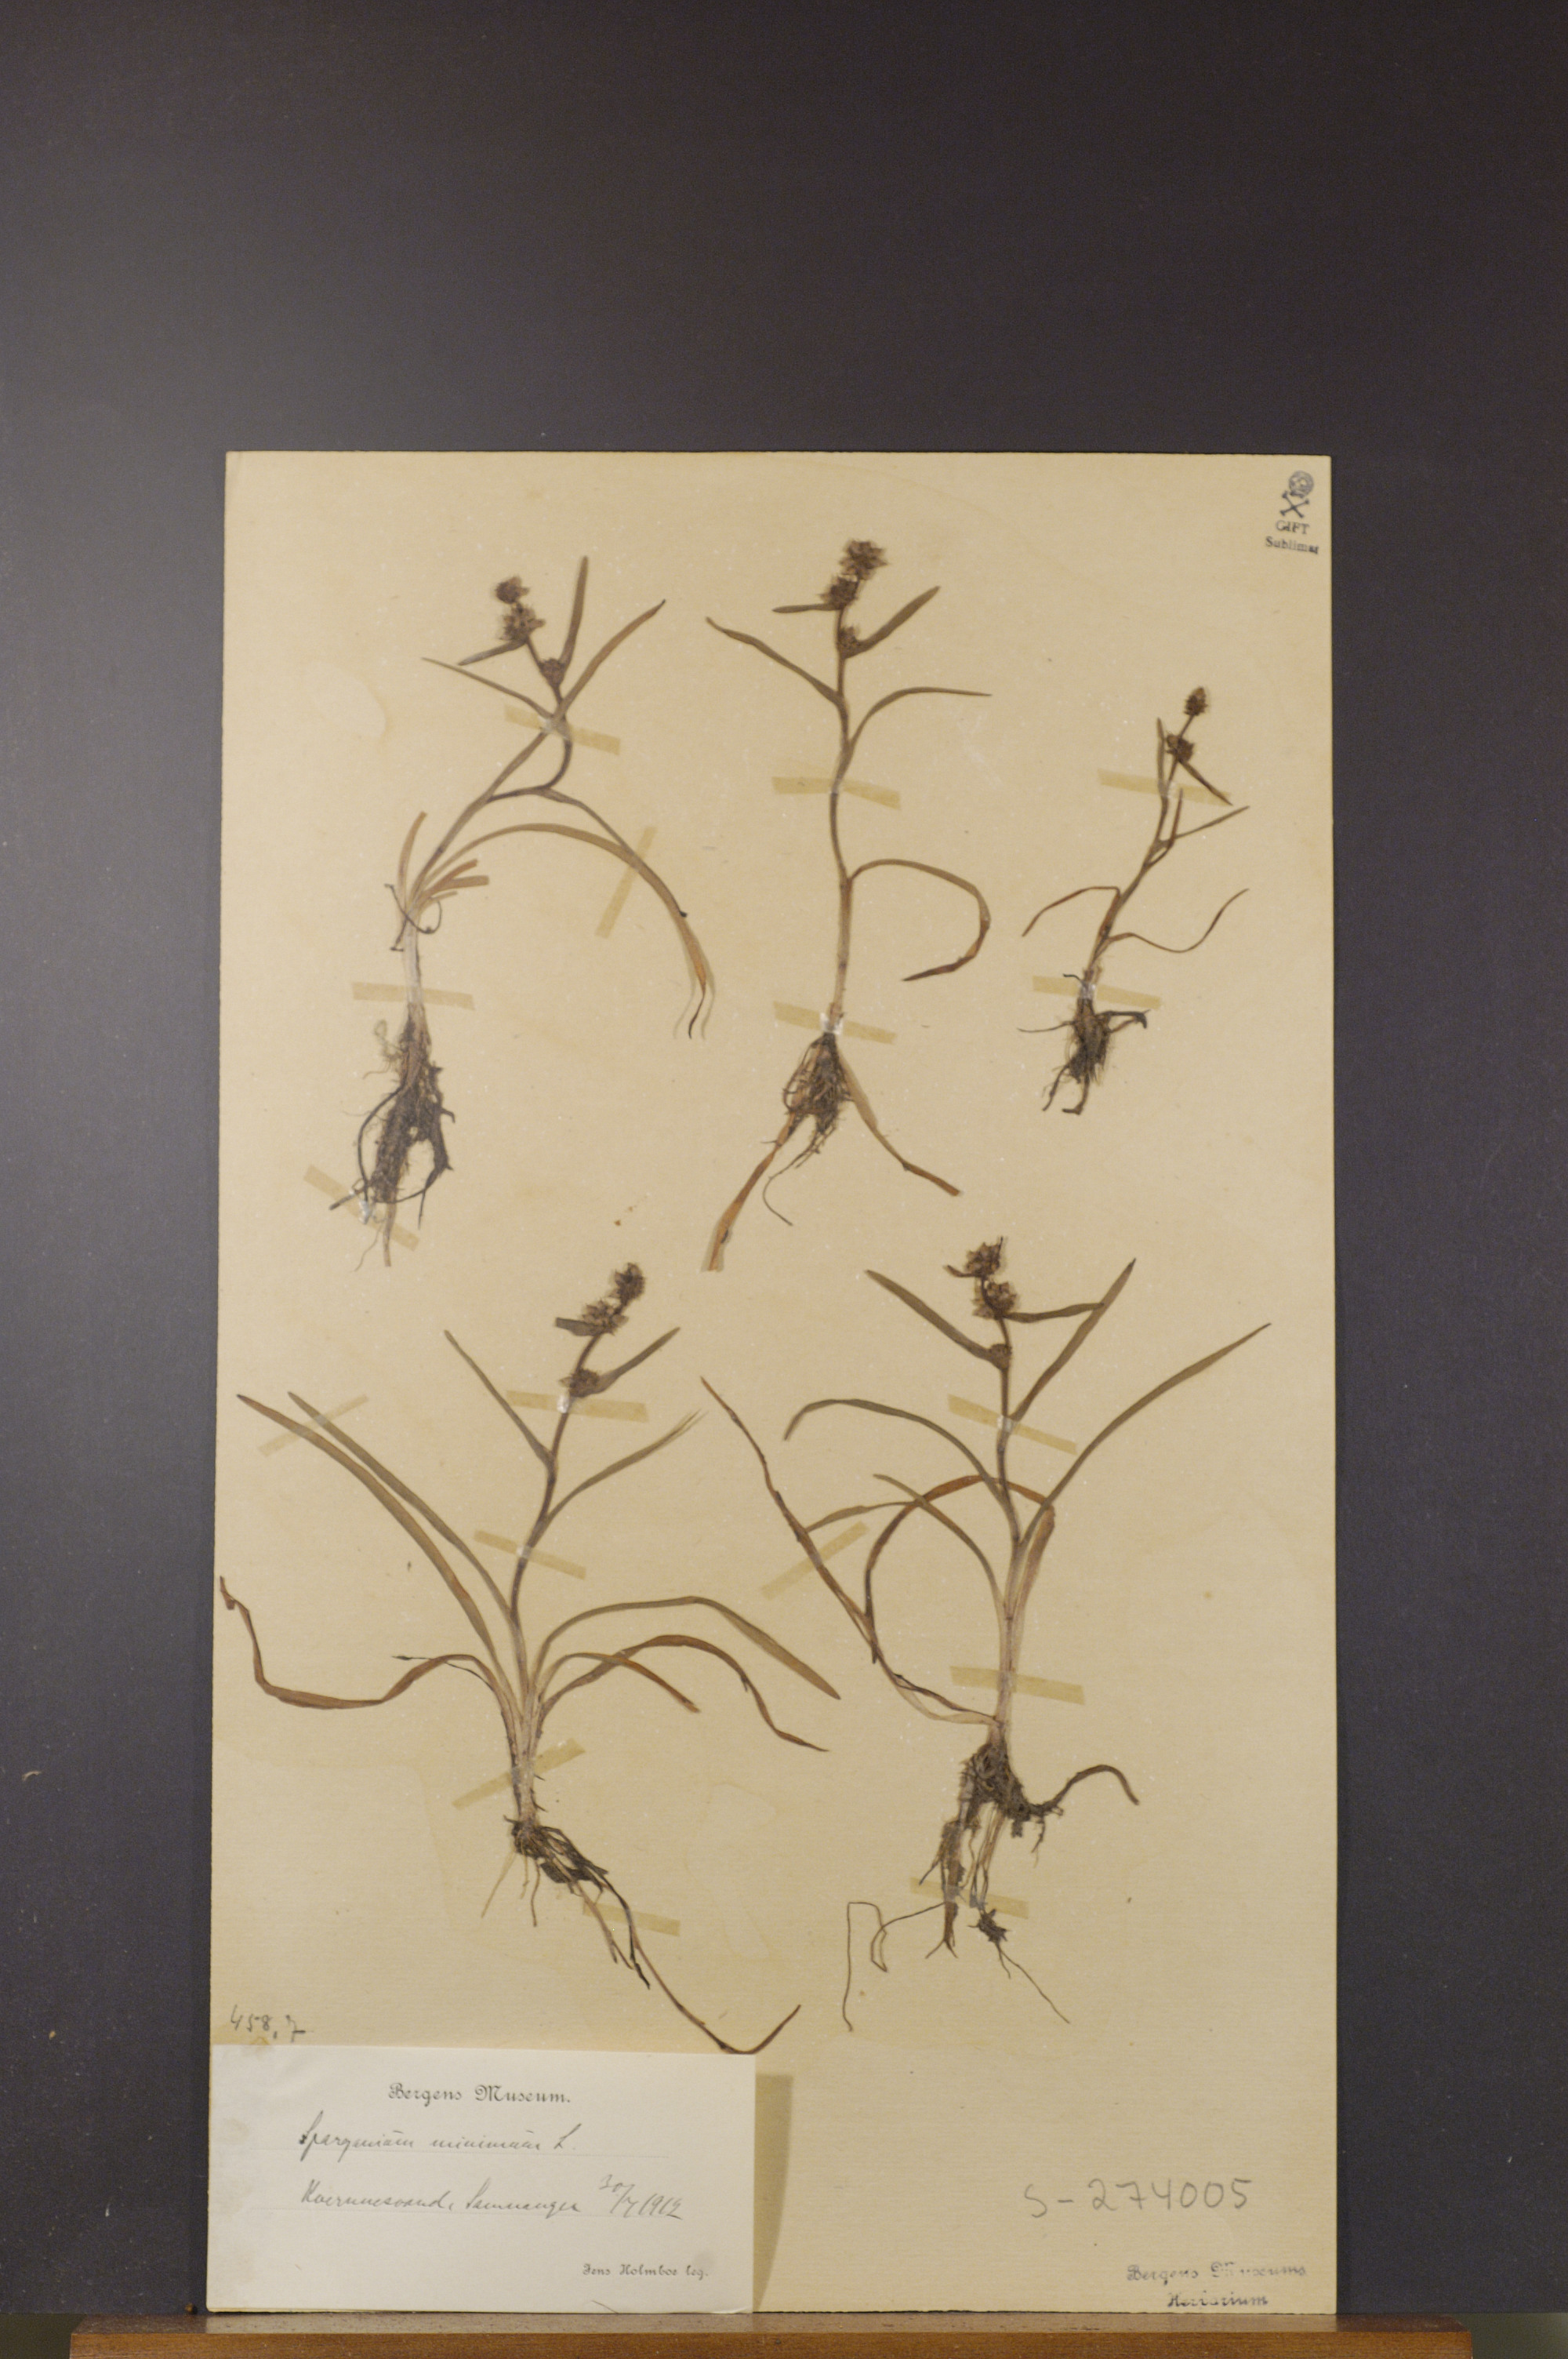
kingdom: Plantae
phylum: Tracheophyta
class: Liliopsida
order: Poales
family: Typhaceae
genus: Sparganium
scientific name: Sparganium natans
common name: Least bur-reed
